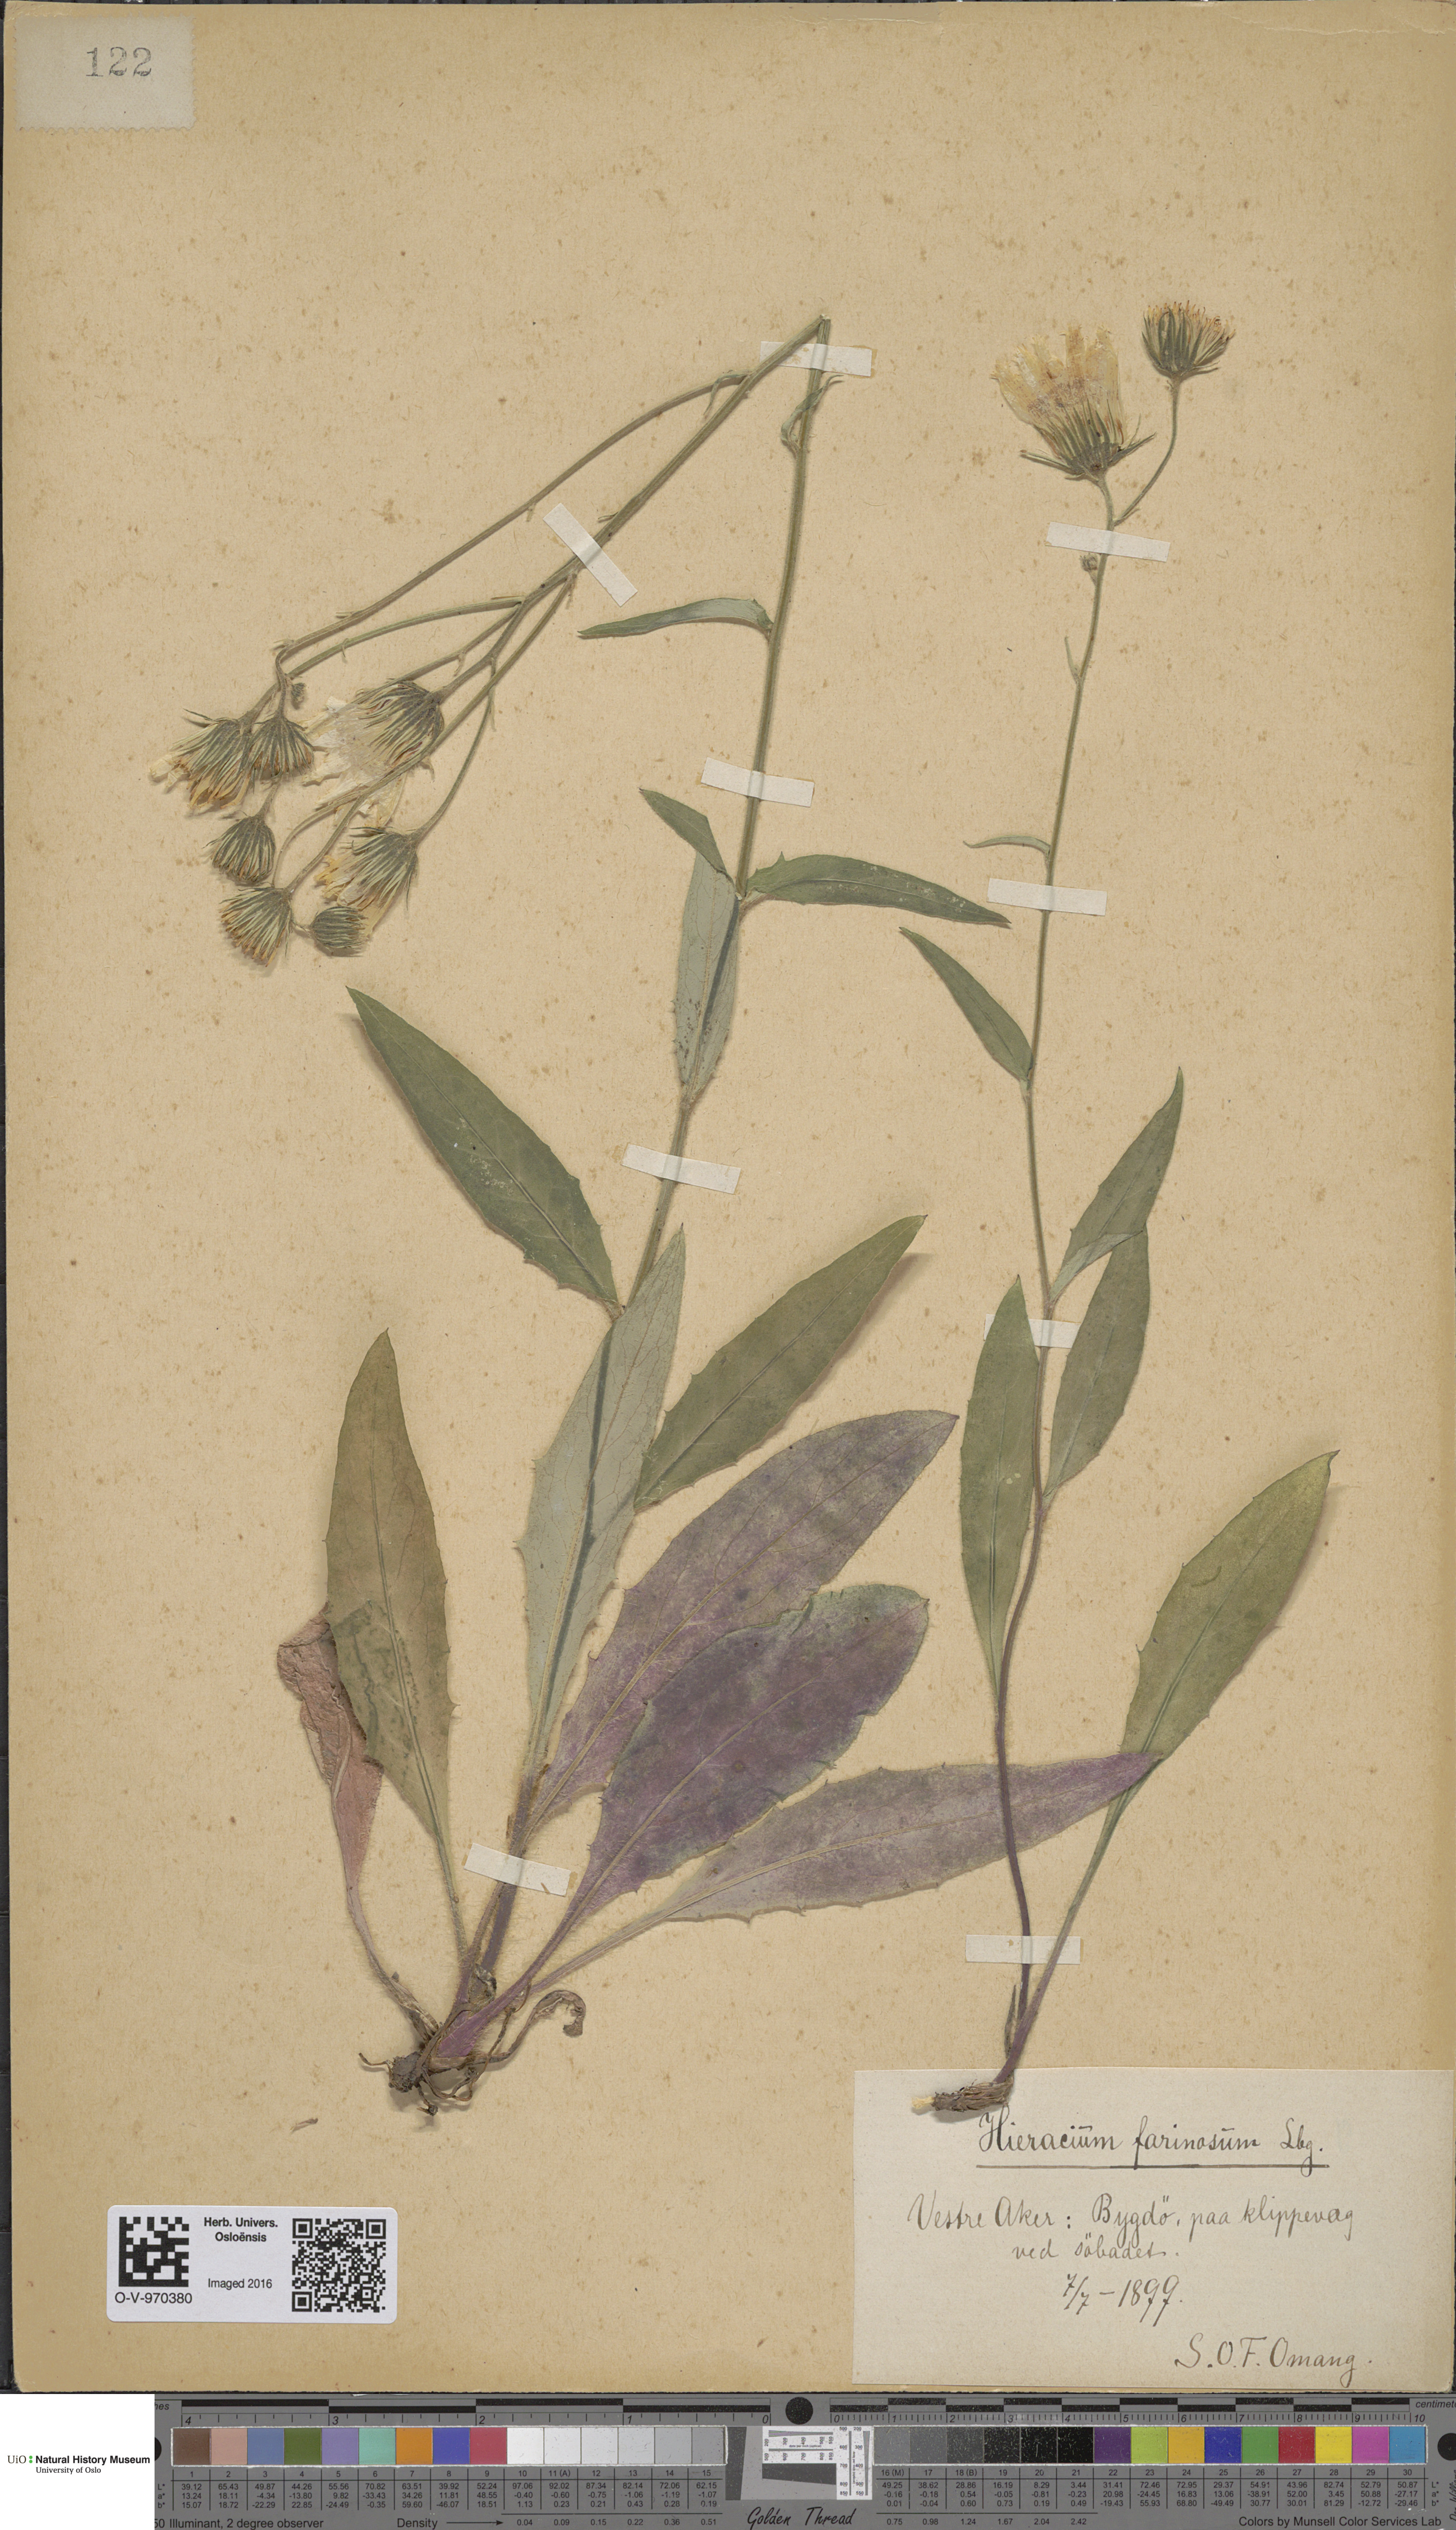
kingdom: Plantae
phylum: Tracheophyta
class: Magnoliopsida
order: Asterales
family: Asteraceae
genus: Hieracium
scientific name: Hieracium subfarinaceum
